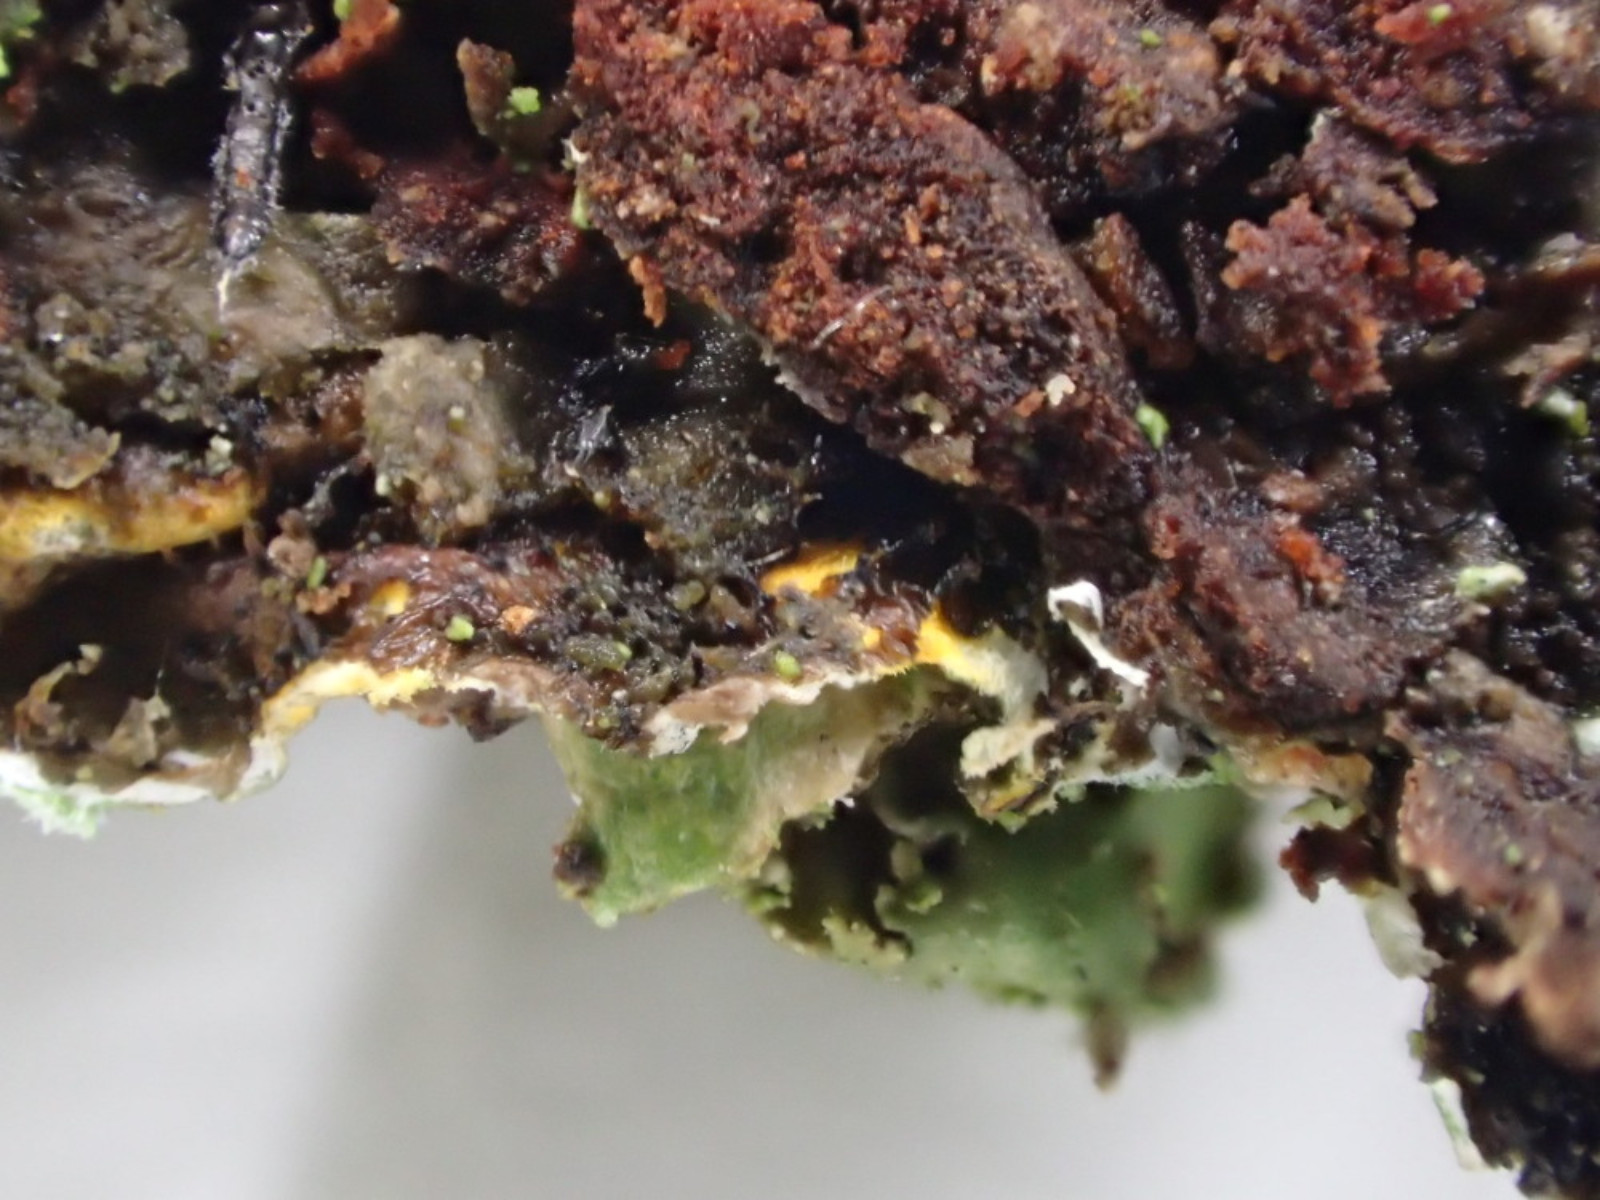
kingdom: Fungi
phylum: Ascomycota
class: Lecanoromycetes
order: Lecanorales
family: Parmeliaceae
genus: Melanelixia
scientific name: Melanelixia glabratula
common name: glinsende skållav
